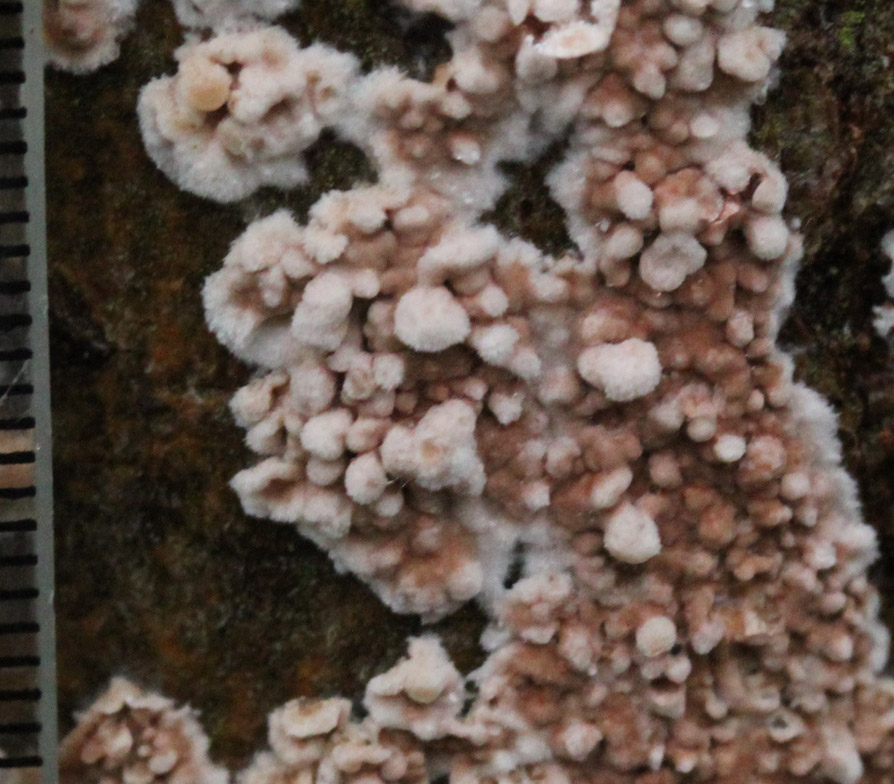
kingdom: Fungi
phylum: Basidiomycota
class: Agaricomycetes
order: Agaricales
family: Physalacriaceae
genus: Cylindrobasidium
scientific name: Cylindrobasidium evolvens
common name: sprækkehinde
